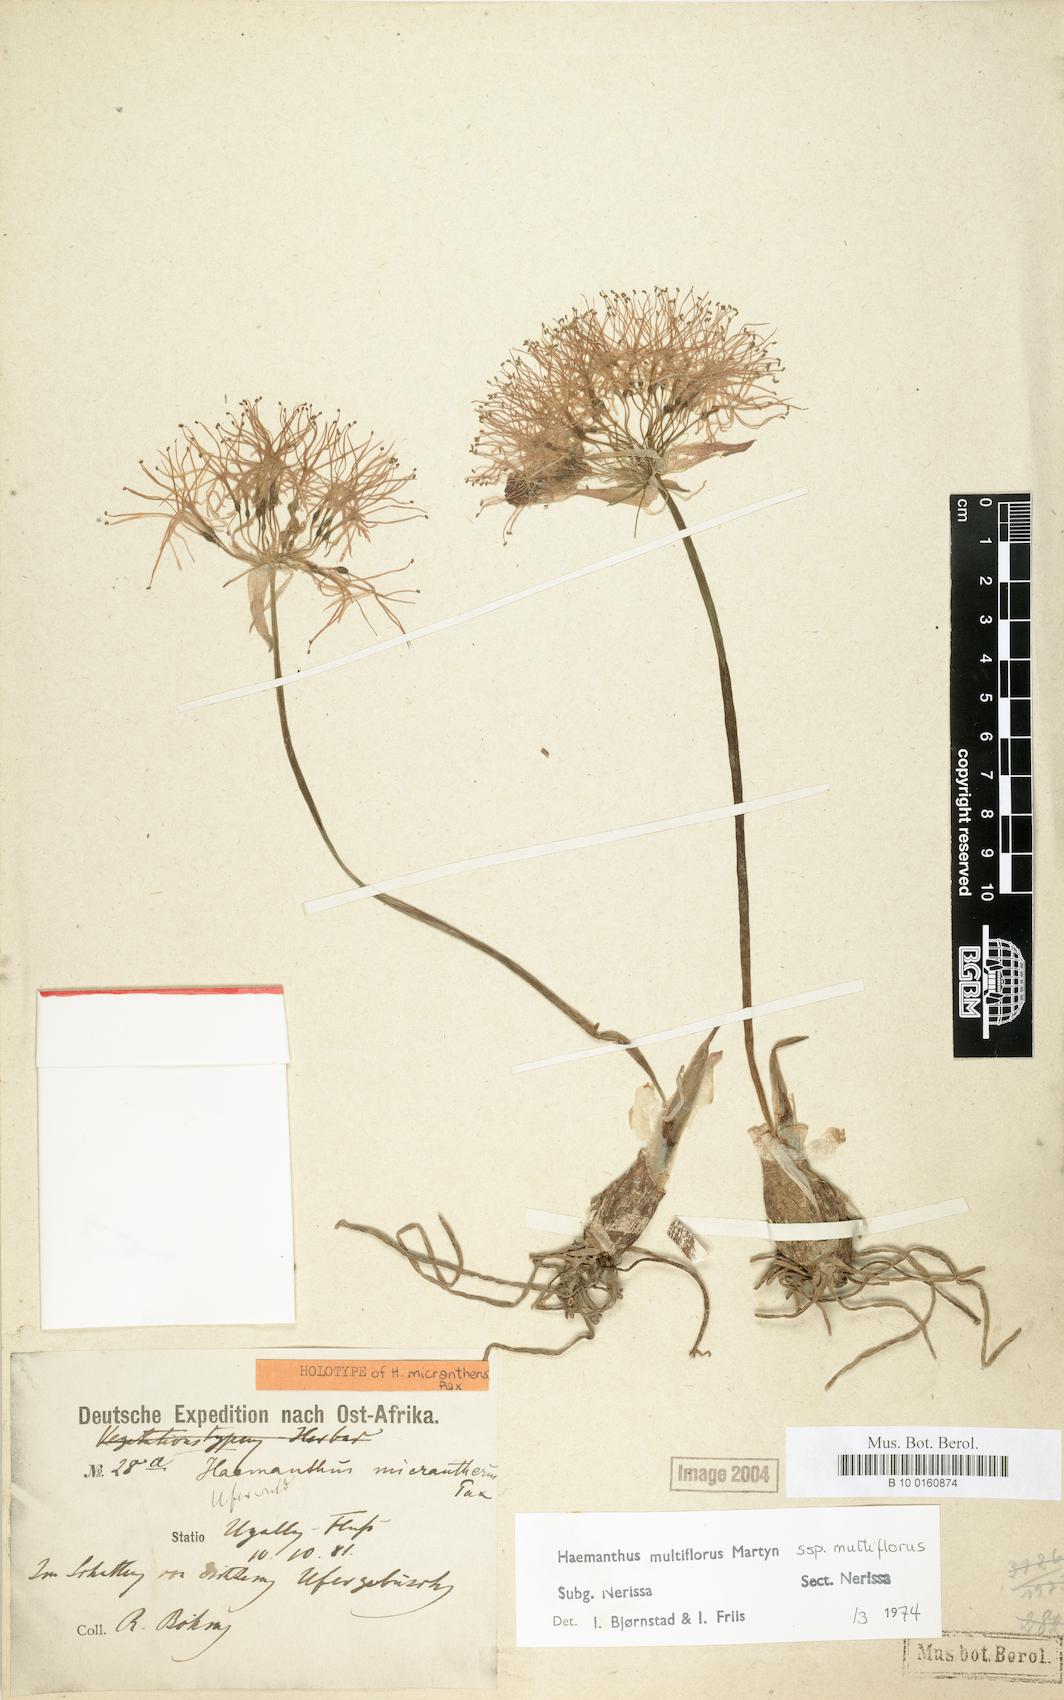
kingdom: Plantae
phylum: Tracheophyta
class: Liliopsida
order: Asparagales
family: Amaryllidaceae
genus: Scadoxus
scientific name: Scadoxus multiflorus
